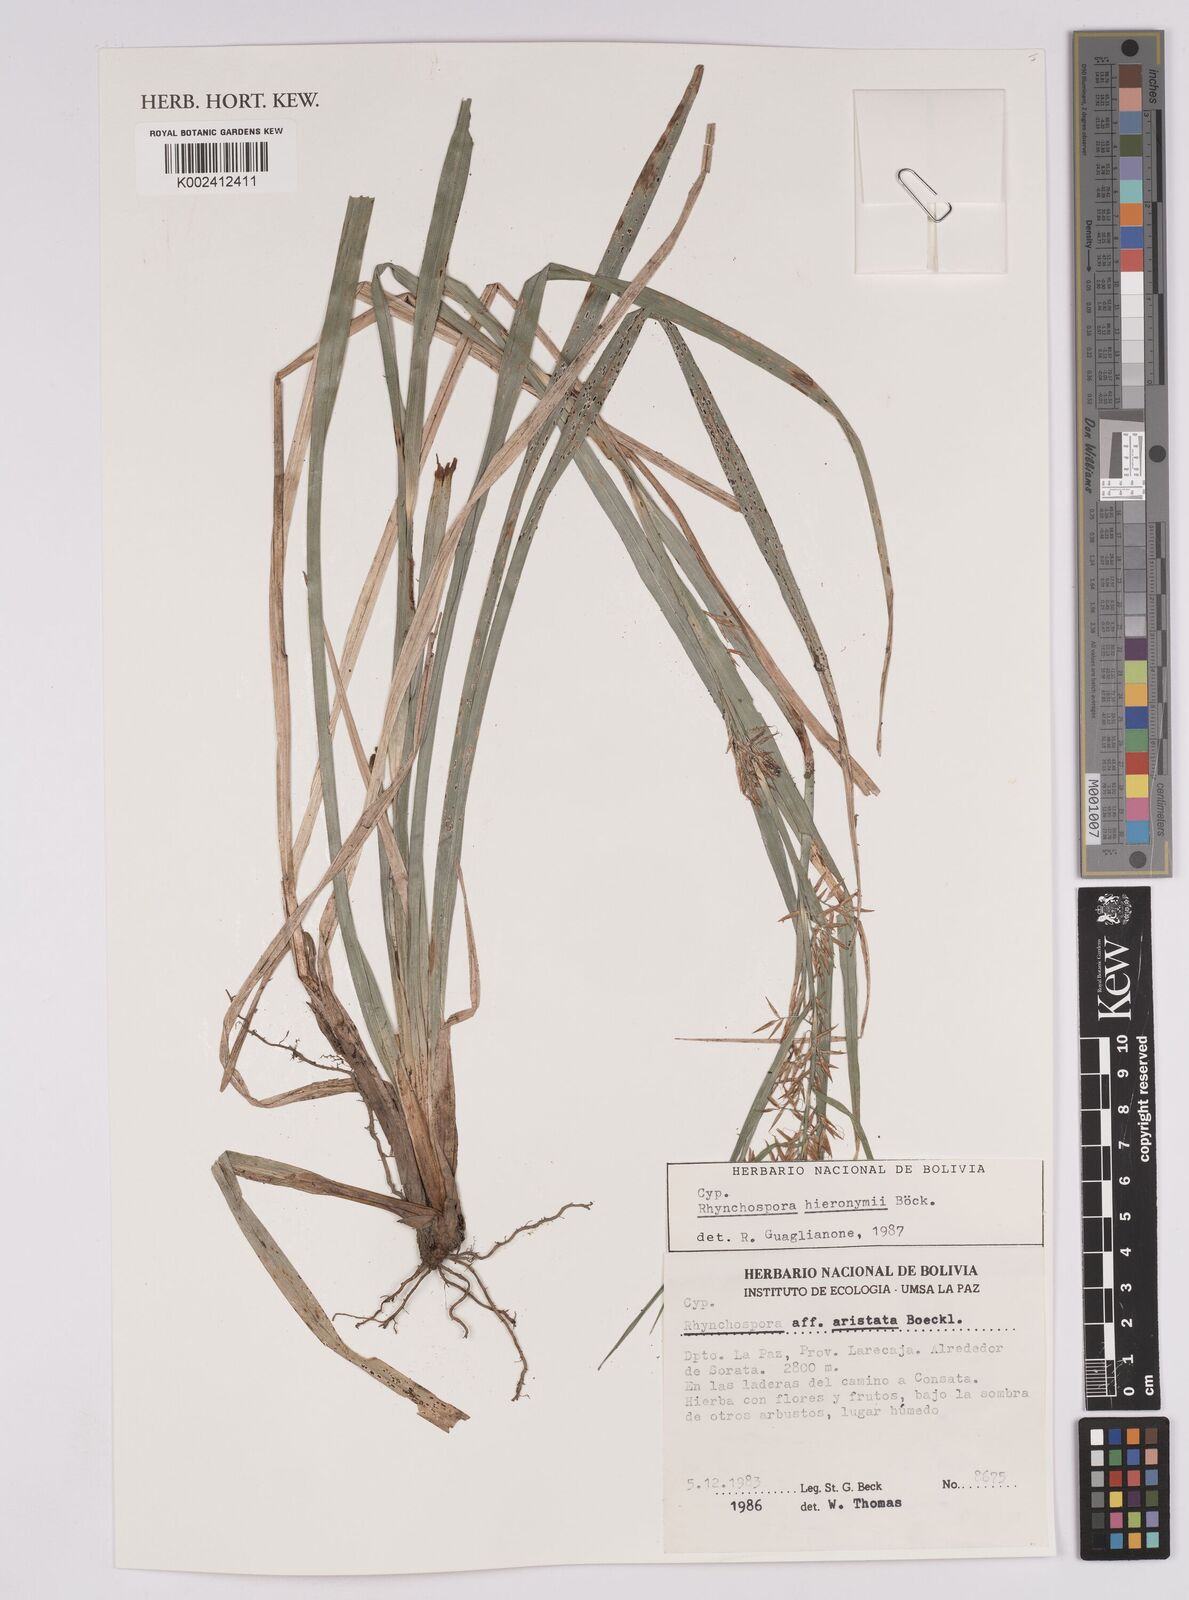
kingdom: Plantae
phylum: Tracheophyta
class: Liliopsida
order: Poales
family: Cyperaceae
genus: Rhynchospora
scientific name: Rhynchospora hieronymi
